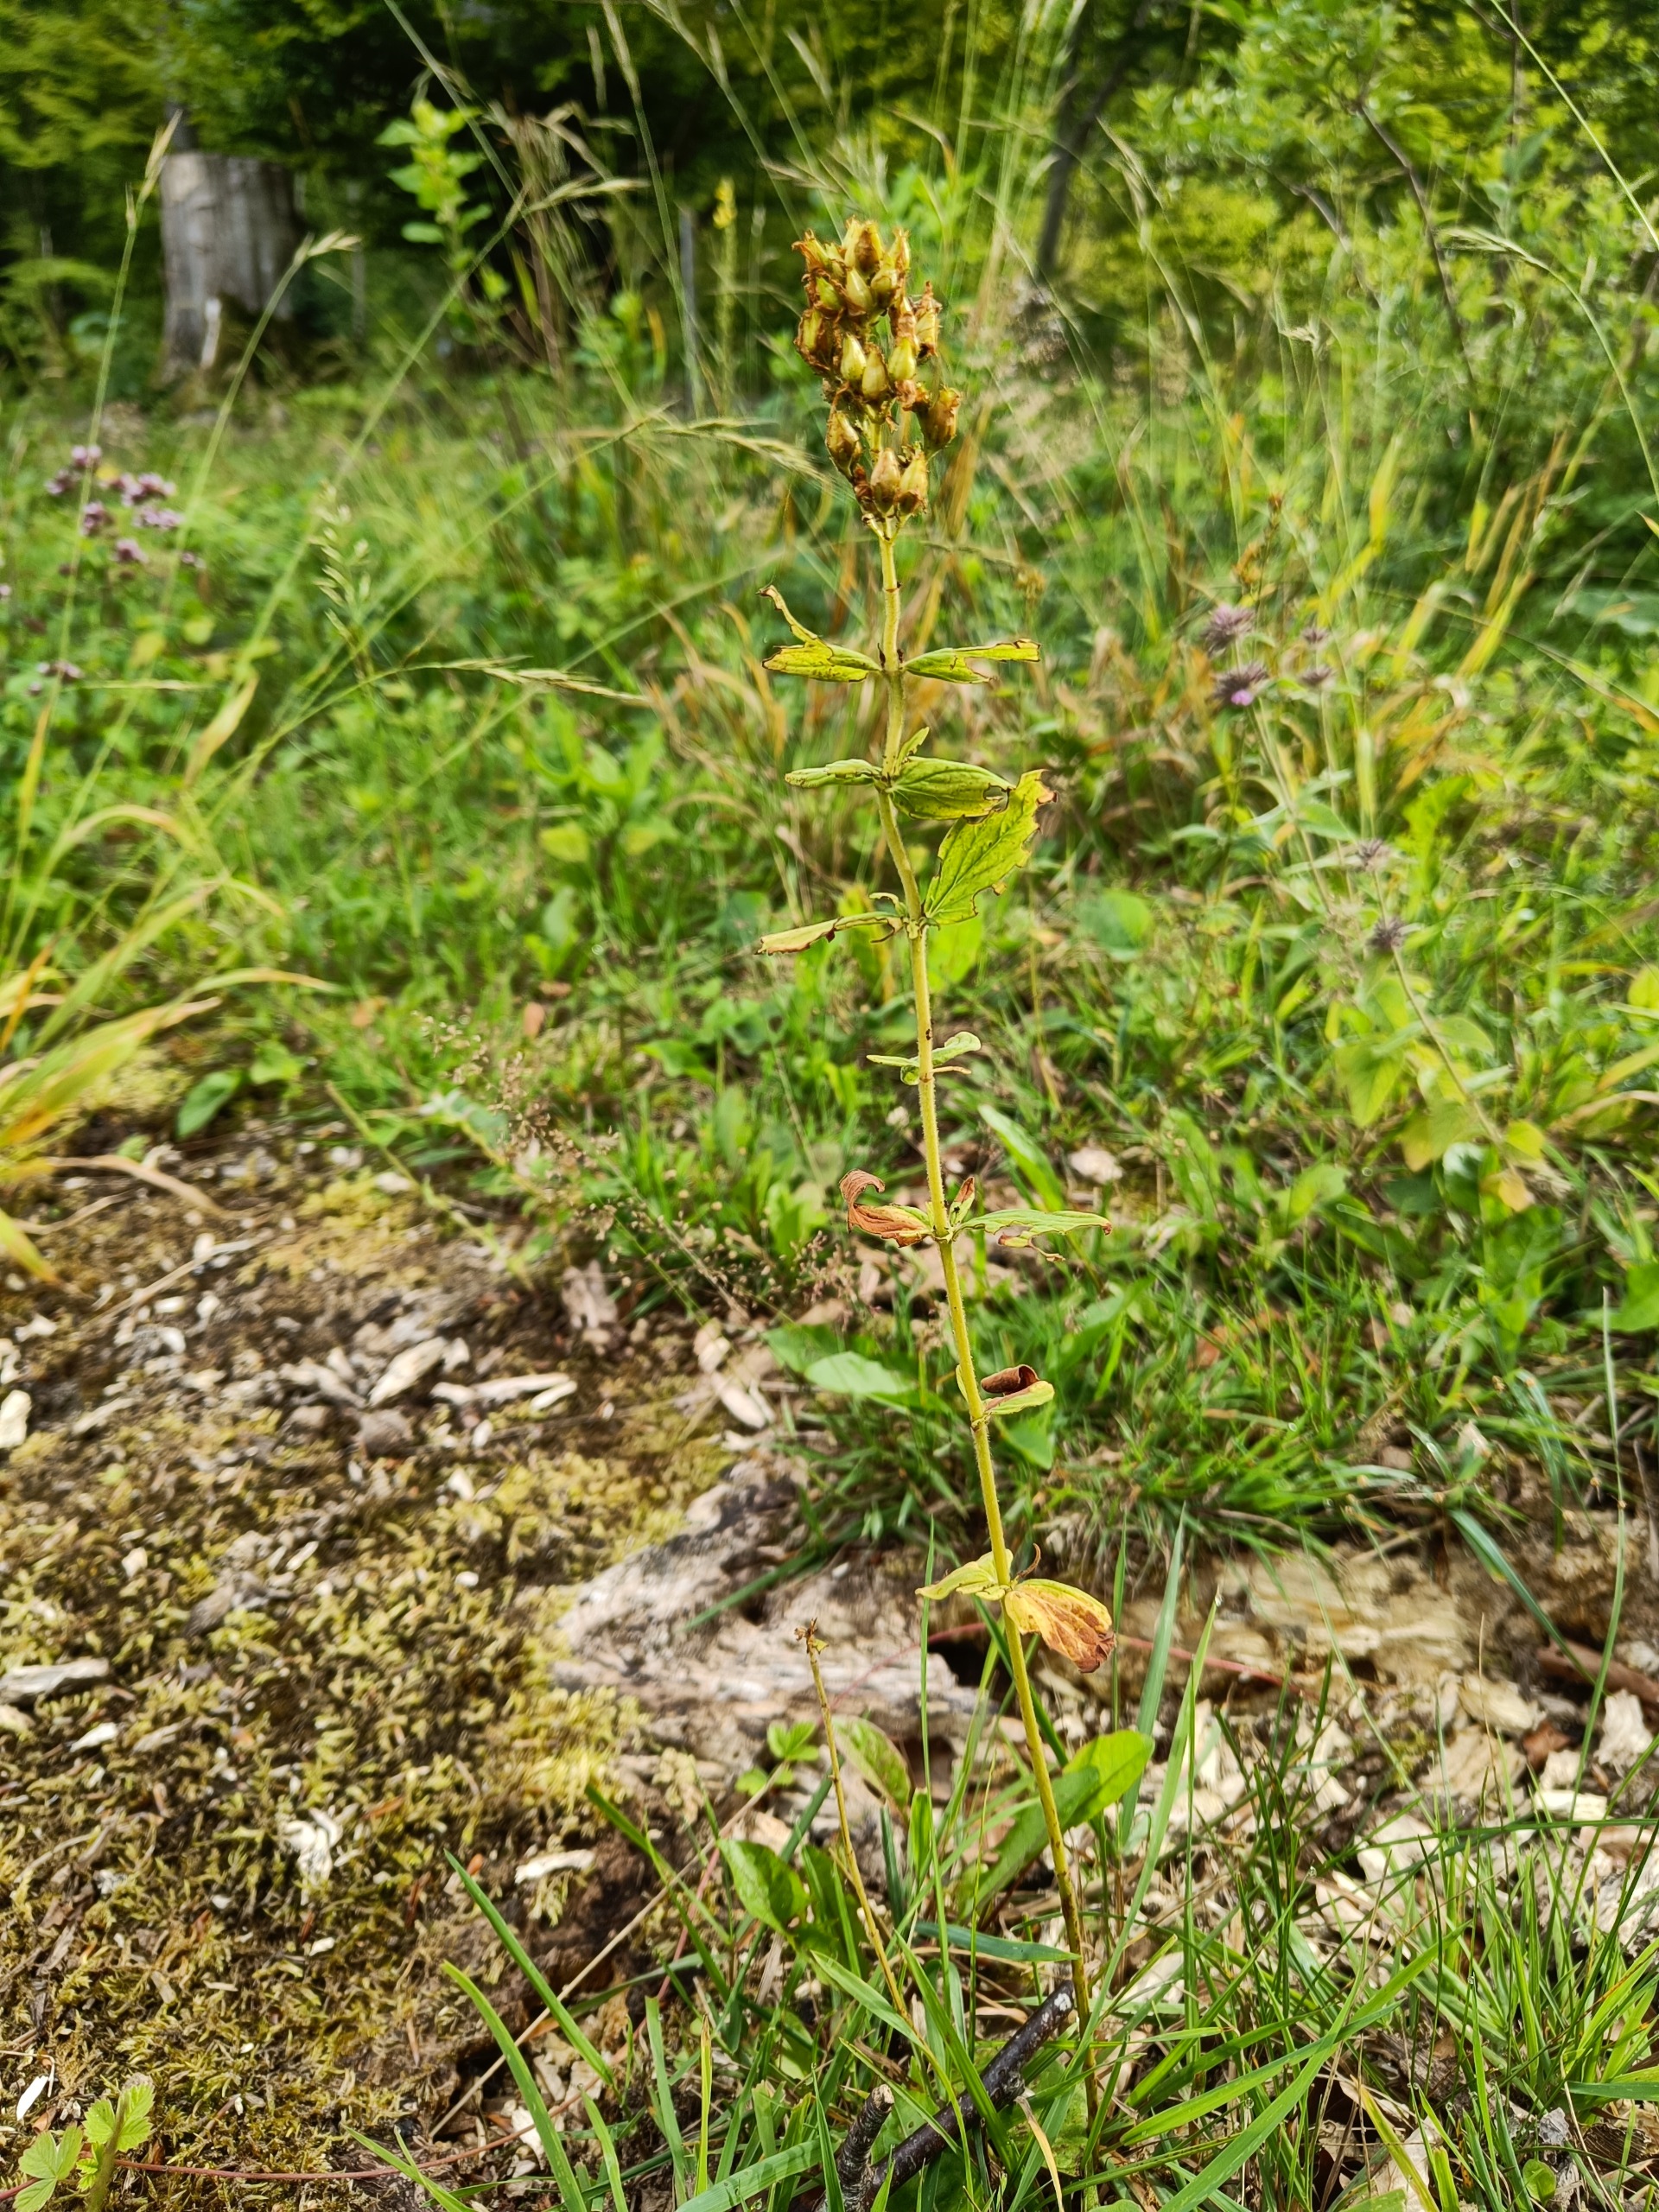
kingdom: Plantae
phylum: Tracheophyta
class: Magnoliopsida
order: Malpighiales
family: Hypericaceae
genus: Hypericum
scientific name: Hypericum hirsutum
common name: Lådden perikon
